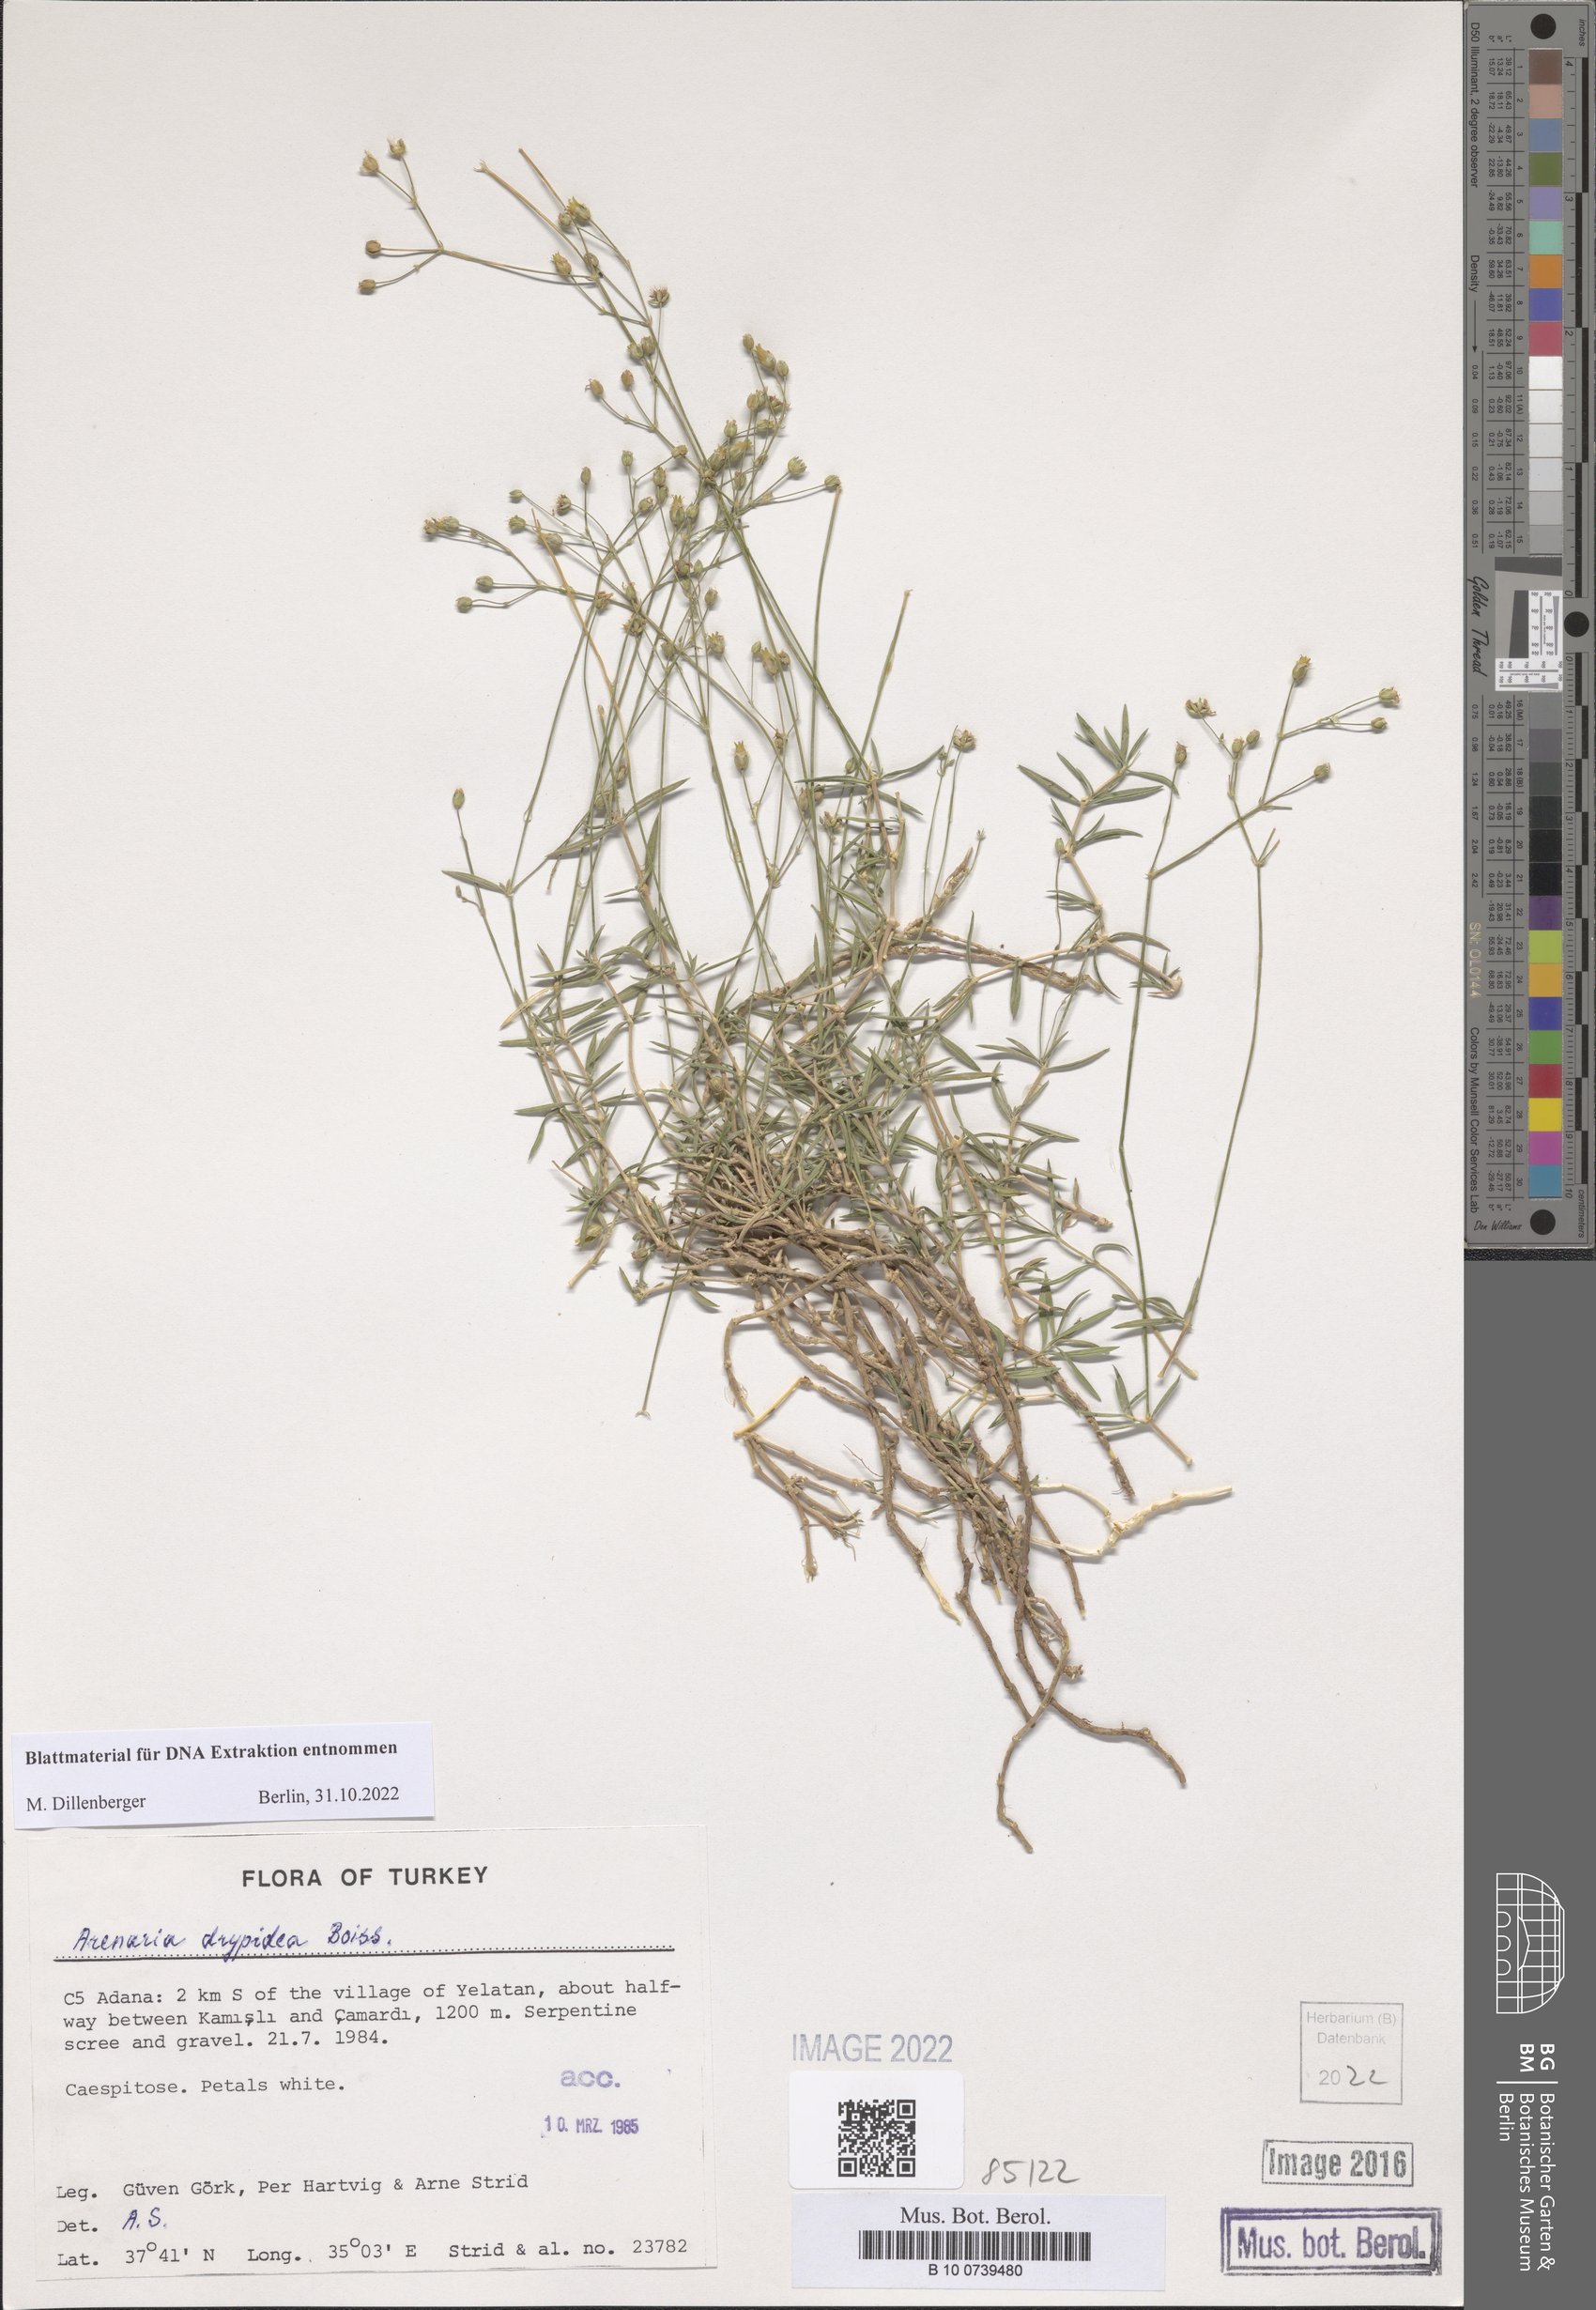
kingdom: Plantae
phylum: Tracheophyta
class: Magnoliopsida
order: Caryophyllales
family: Caryophyllaceae
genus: Eremogone
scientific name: Eremogone drypidea
